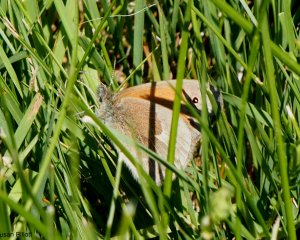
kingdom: Animalia
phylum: Arthropoda
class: Insecta
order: Lepidoptera
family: Nymphalidae
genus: Coenonympha
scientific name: Coenonympha tullia
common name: Large Heath
